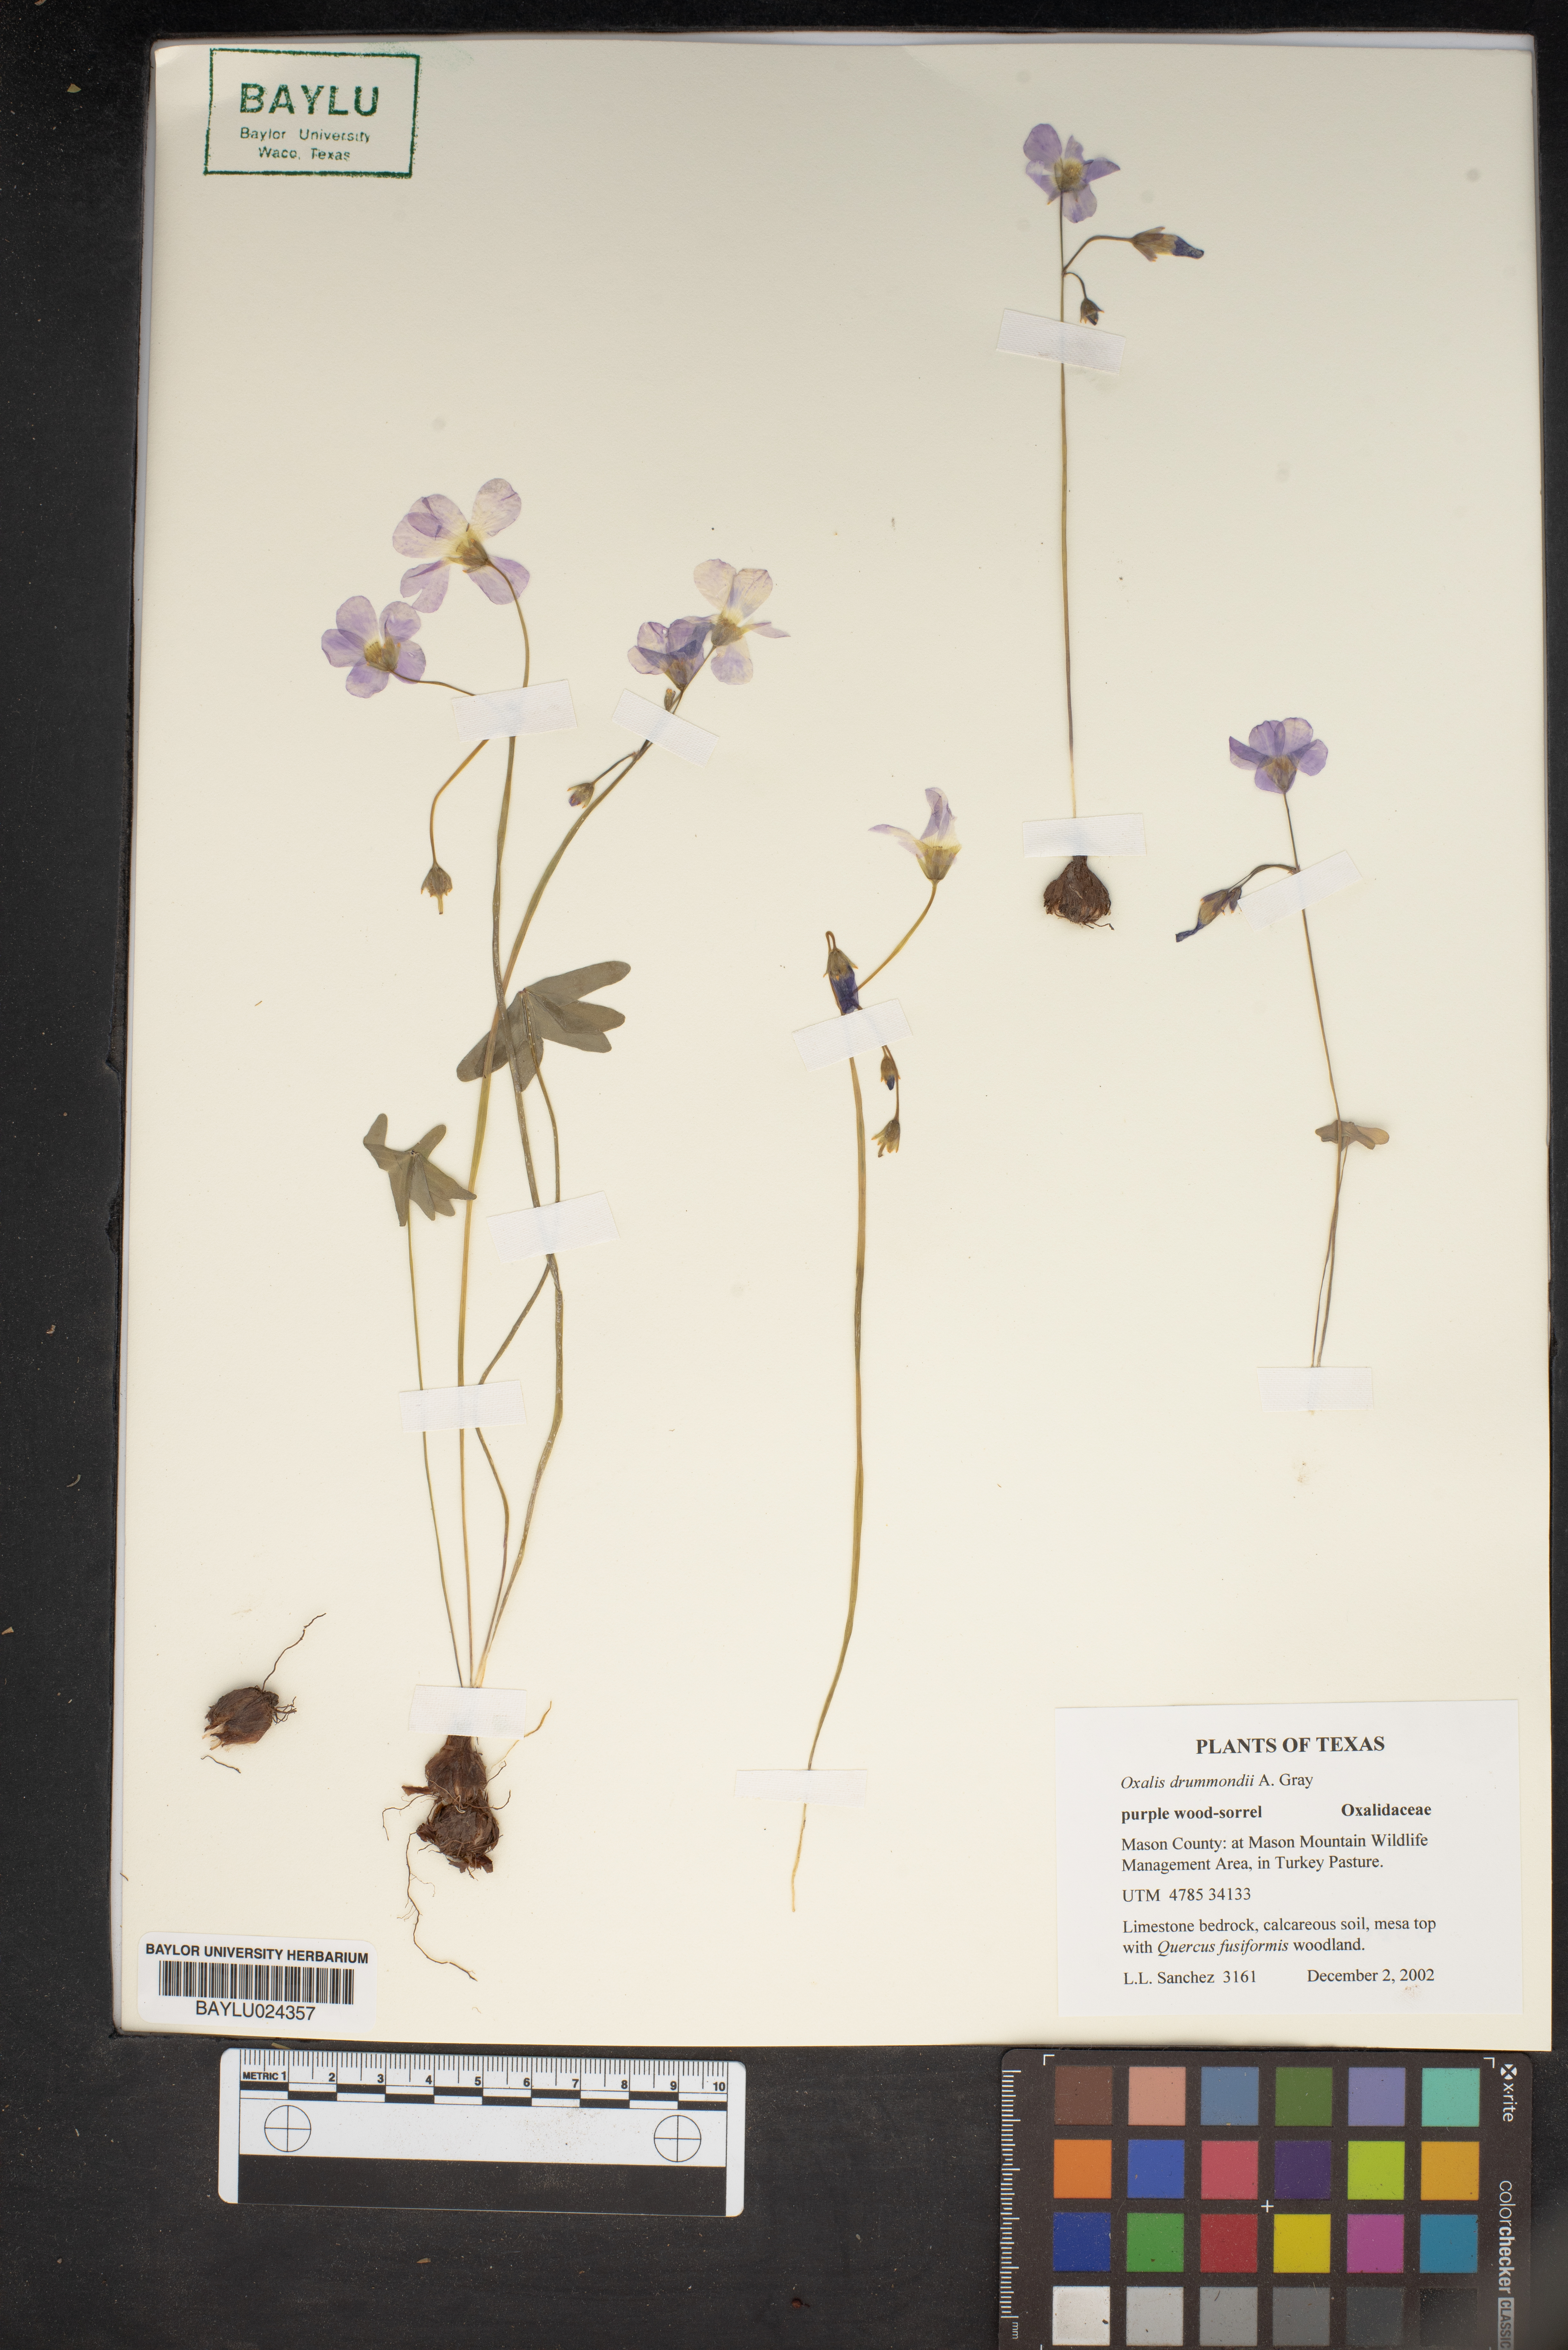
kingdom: Plantae
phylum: Tracheophyta
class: Magnoliopsida
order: Oxalidales
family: Oxalidaceae
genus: Oxalis
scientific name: Oxalis drummondii
